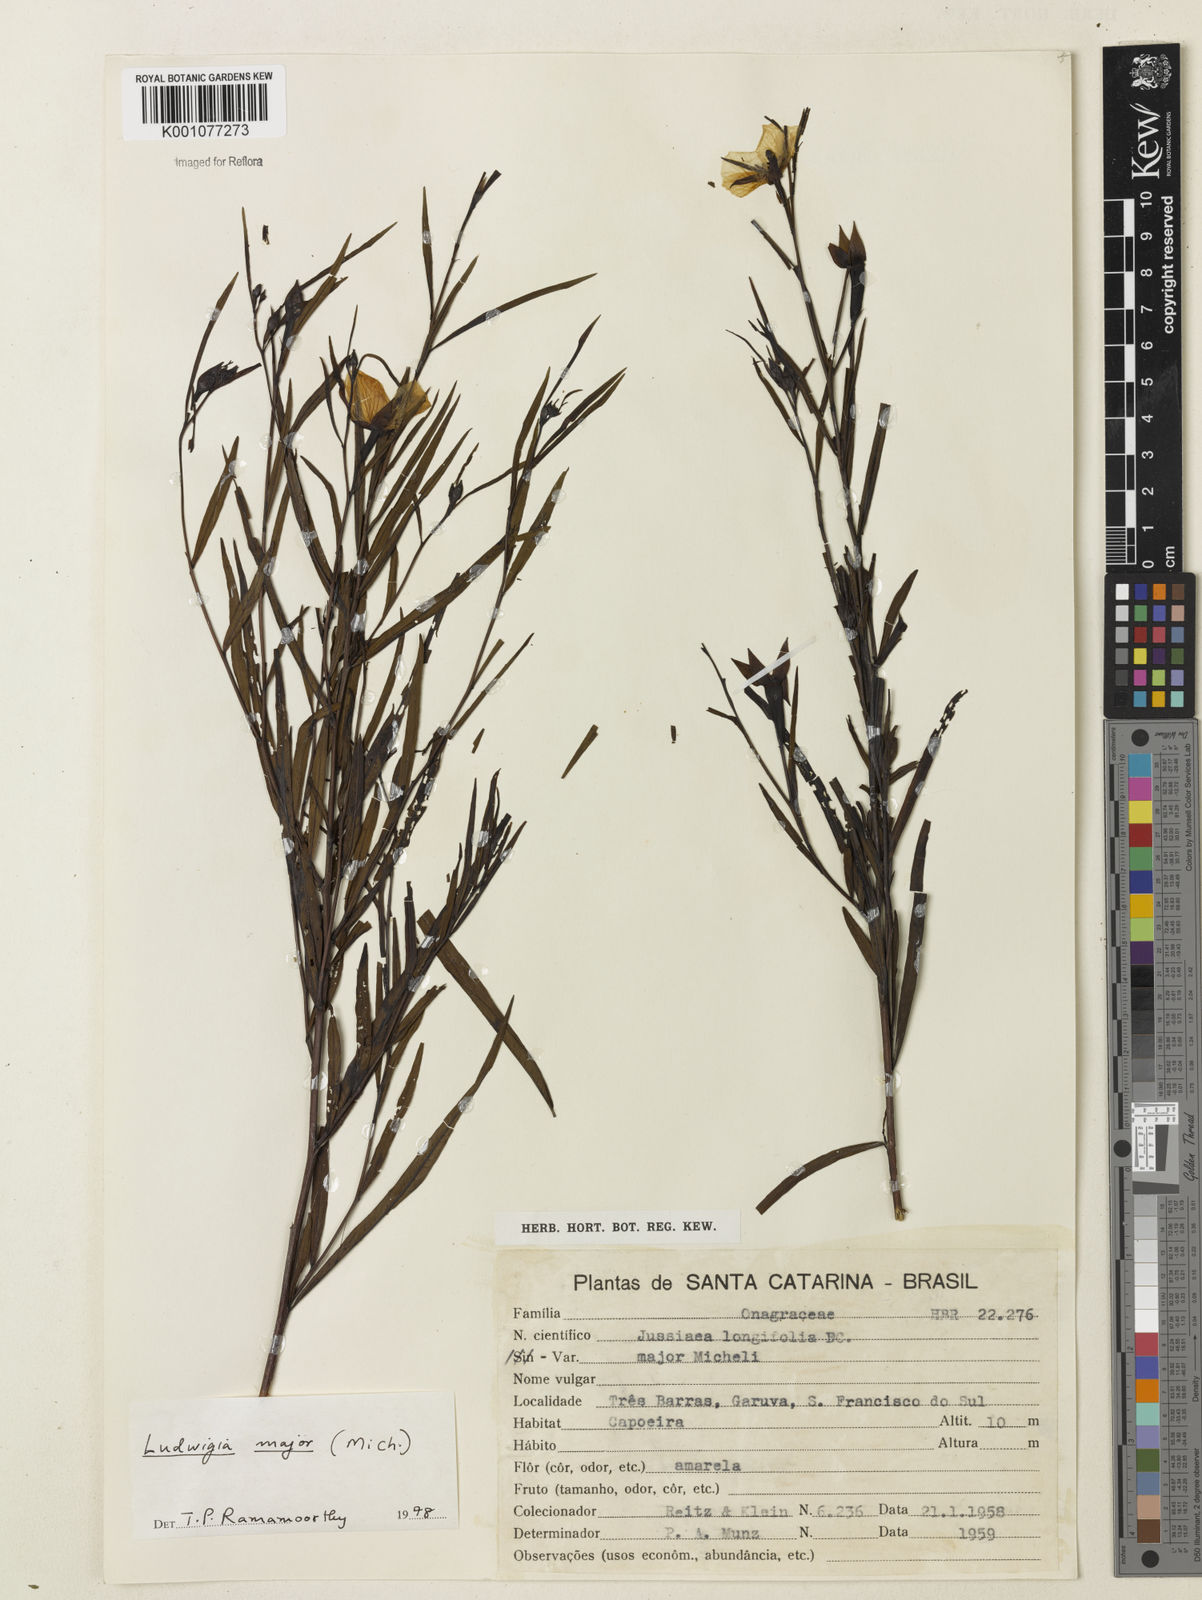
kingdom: Plantae
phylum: Tracheophyta
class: Magnoliopsida
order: Myrtales
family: Onagraceae
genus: Ludwigia
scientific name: Ludwigia major
